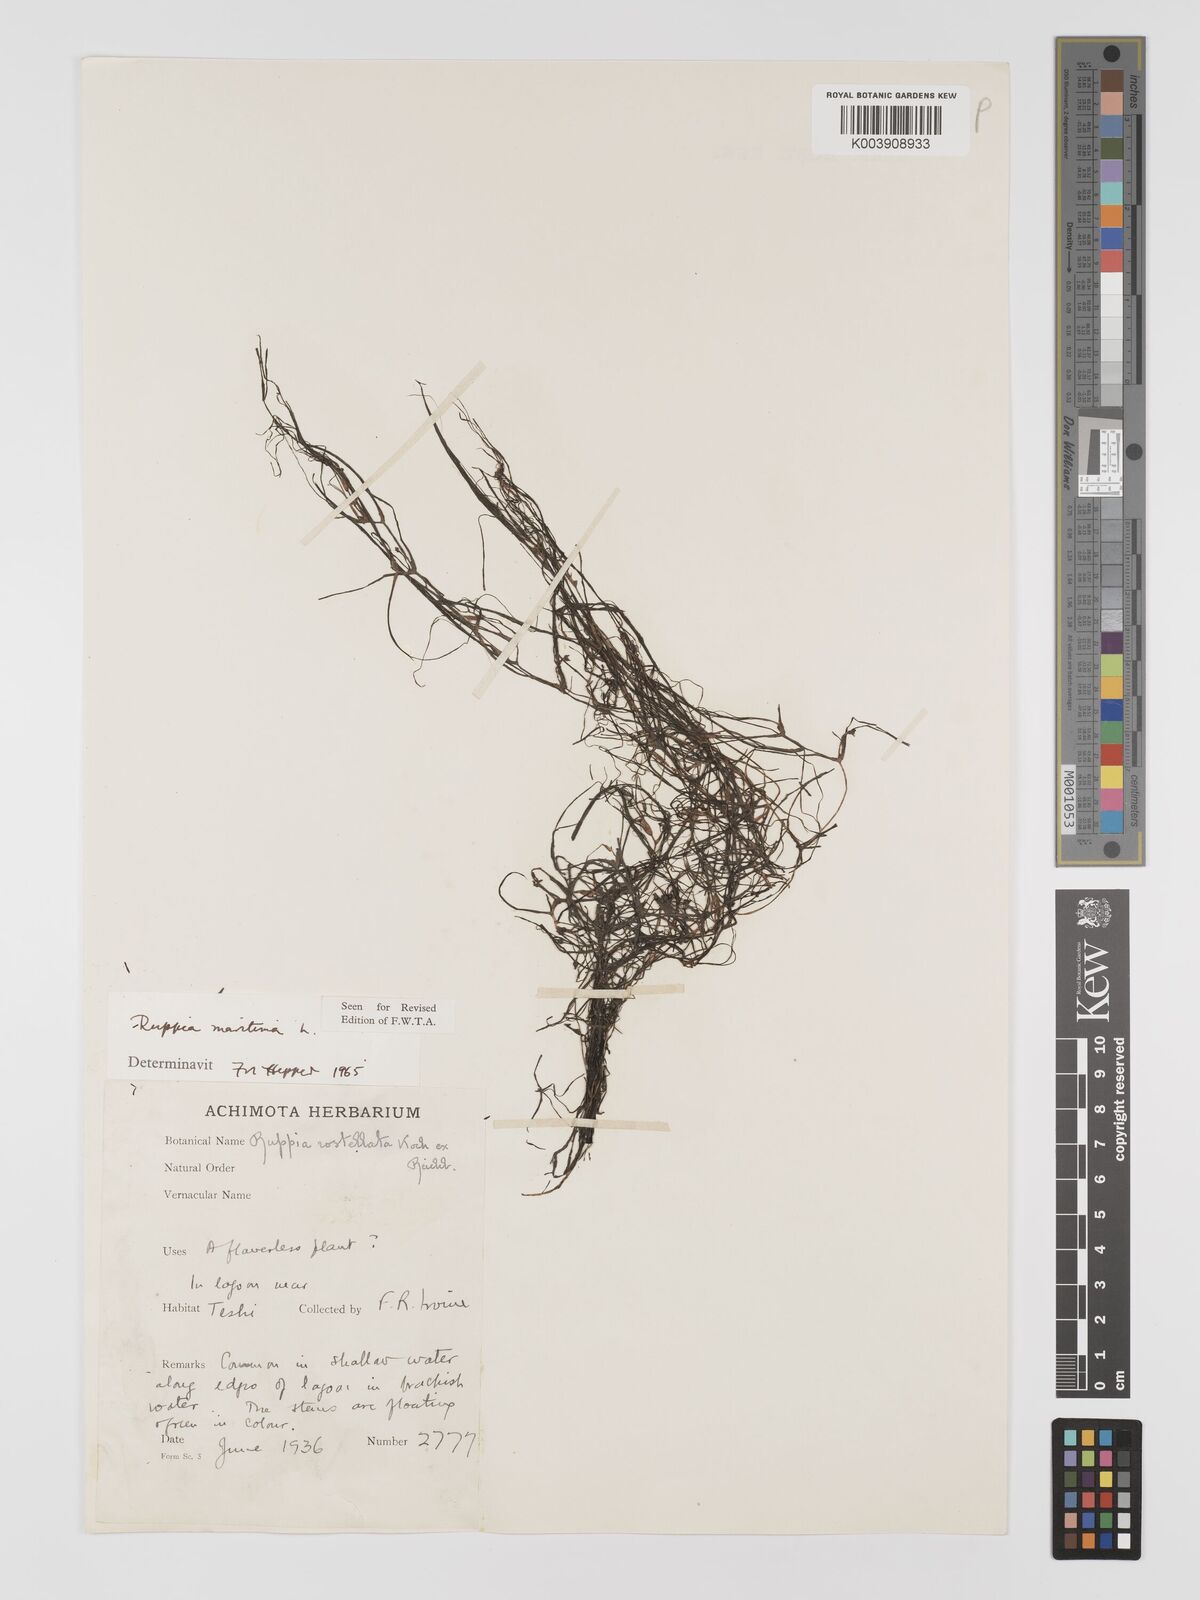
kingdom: Plantae
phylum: Tracheophyta
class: Liliopsida
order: Alismatales
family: Ruppiaceae
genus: Ruppia
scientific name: Ruppia maritima
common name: Beaked tasselweed
